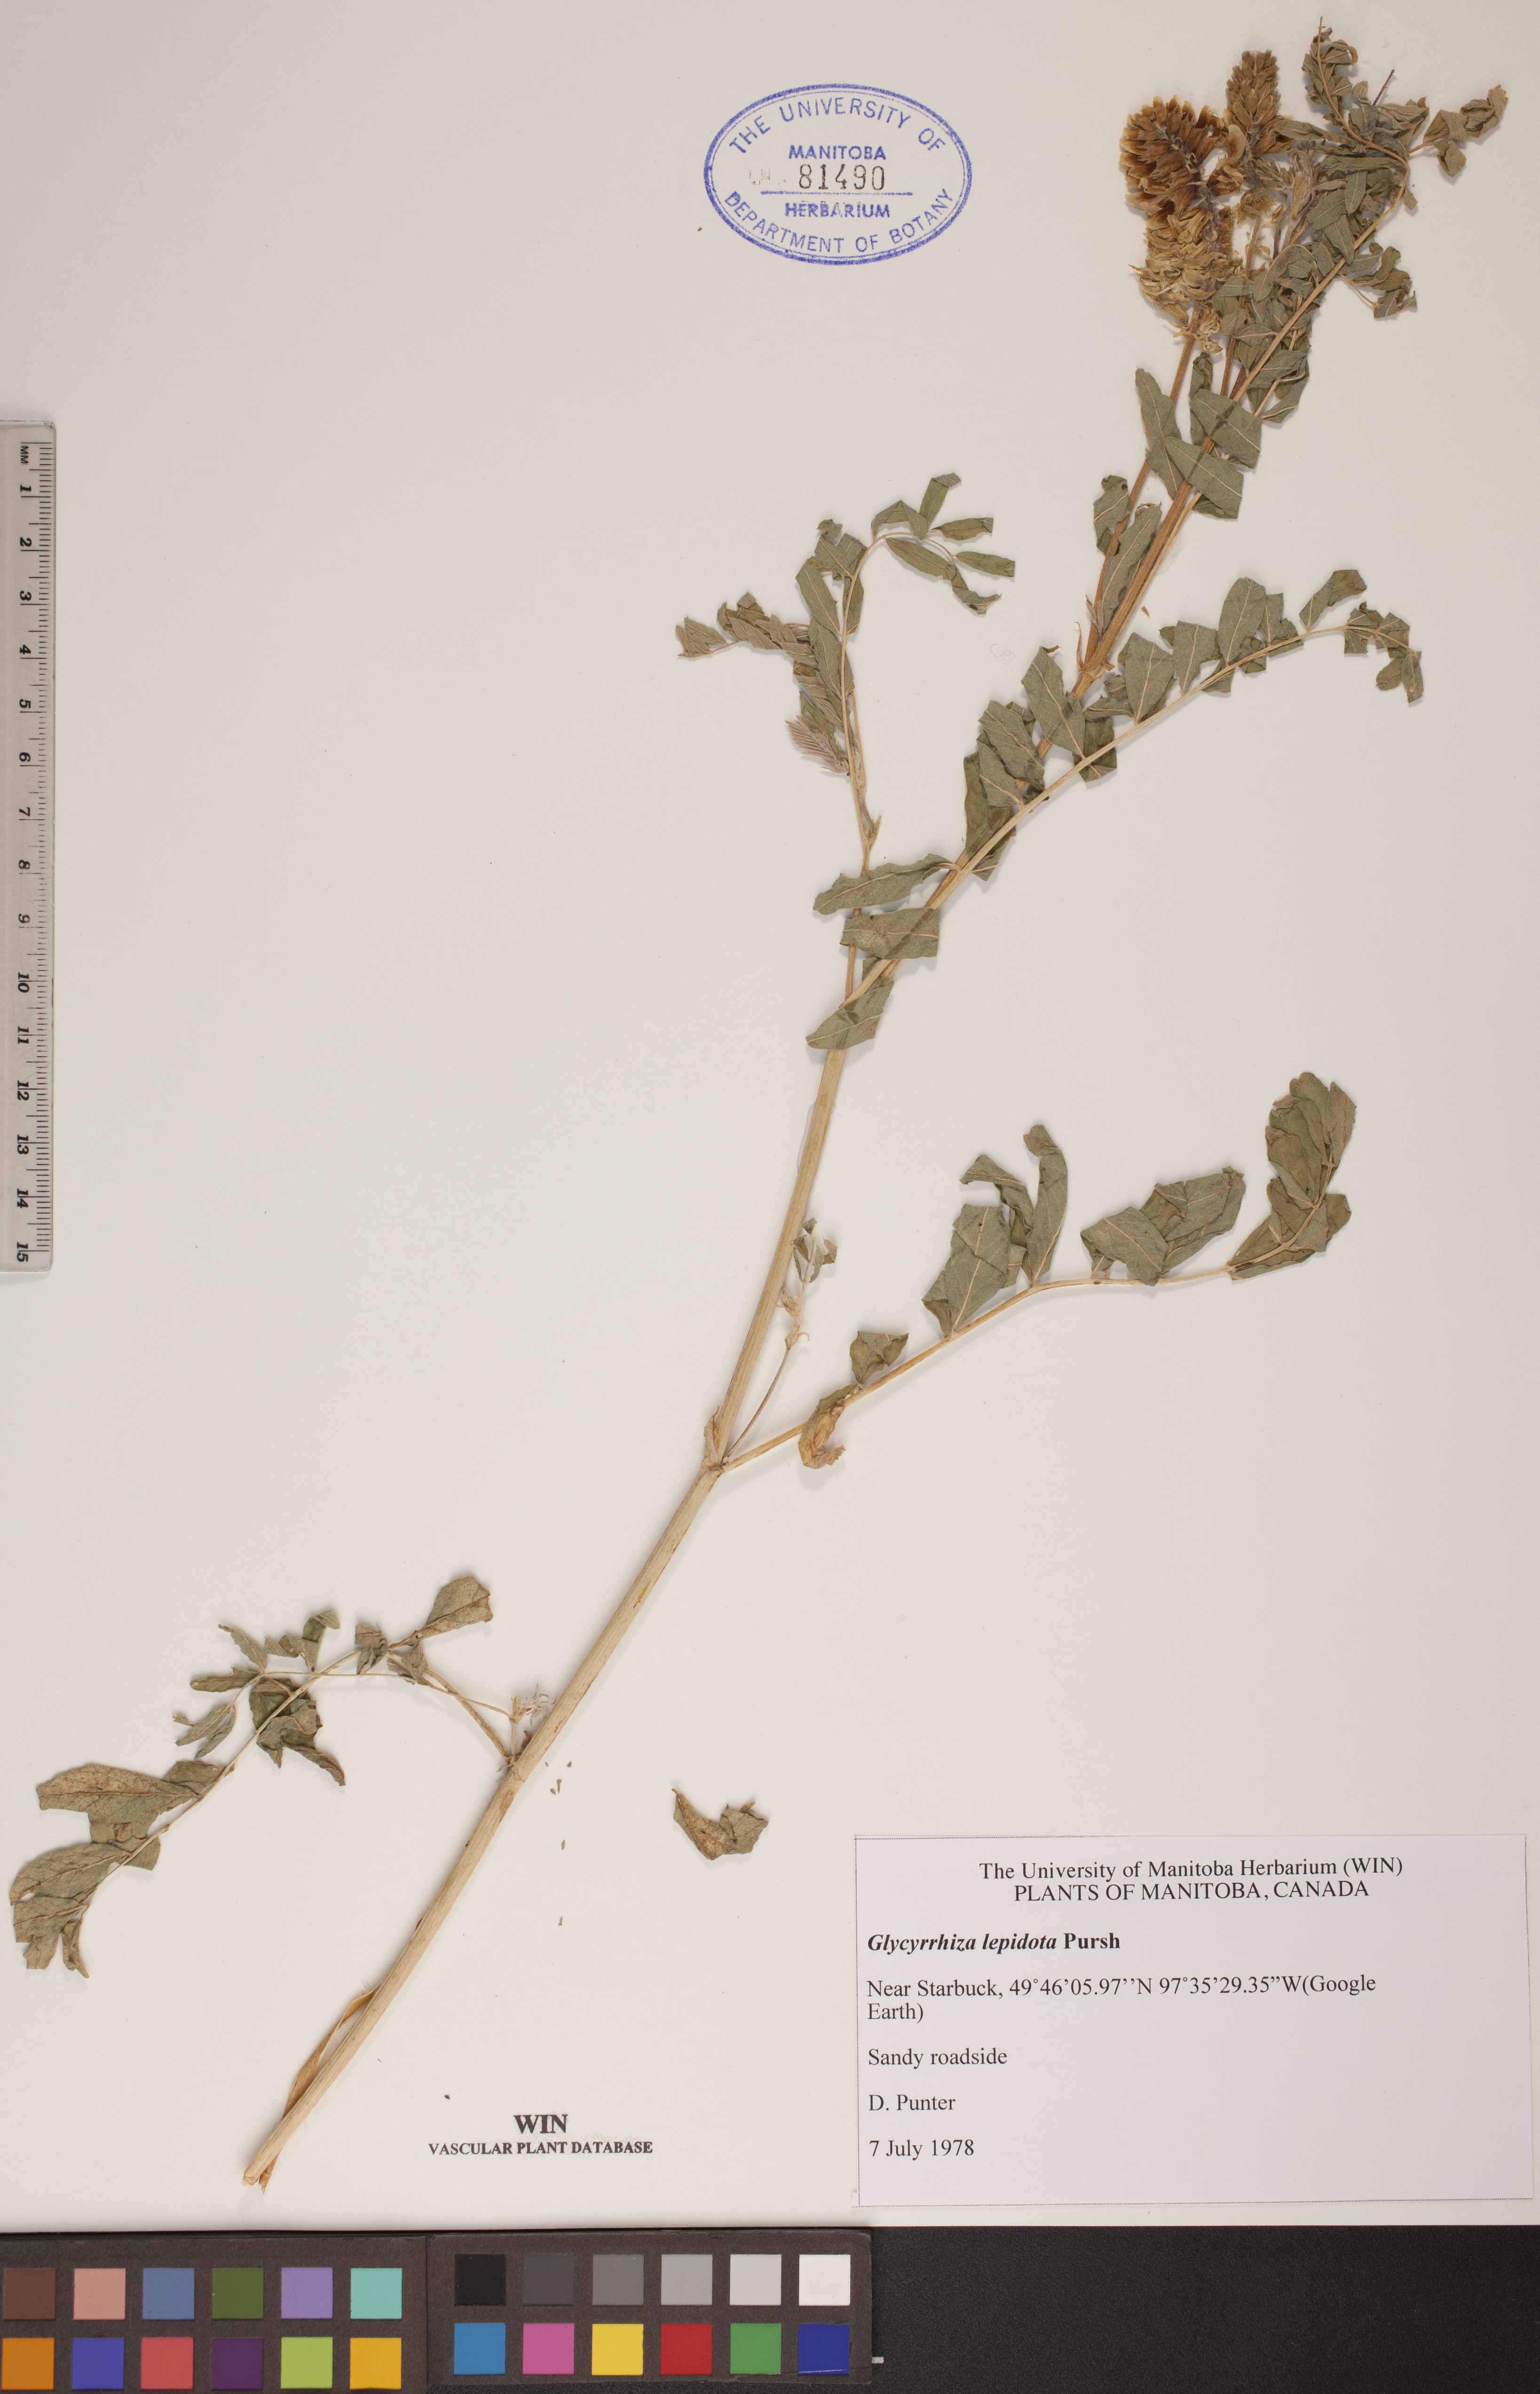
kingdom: Plantae
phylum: Tracheophyta
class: Magnoliopsida
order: Fabales
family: Fabaceae
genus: Glycyrrhiza
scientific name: Glycyrrhiza lepidota
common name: American liquorice
